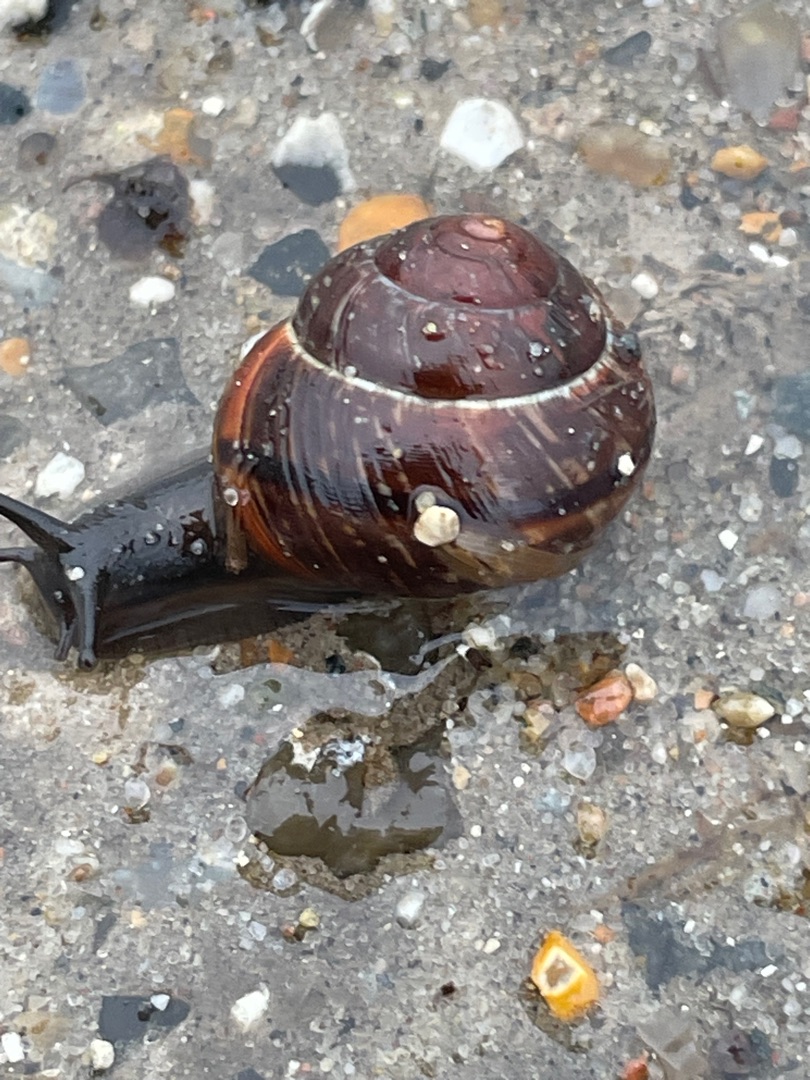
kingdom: Animalia
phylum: Mollusca
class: Gastropoda
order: Stylommatophora
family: Helicidae
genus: Arianta
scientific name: Arianta arbustorum
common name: Kratsnegl
